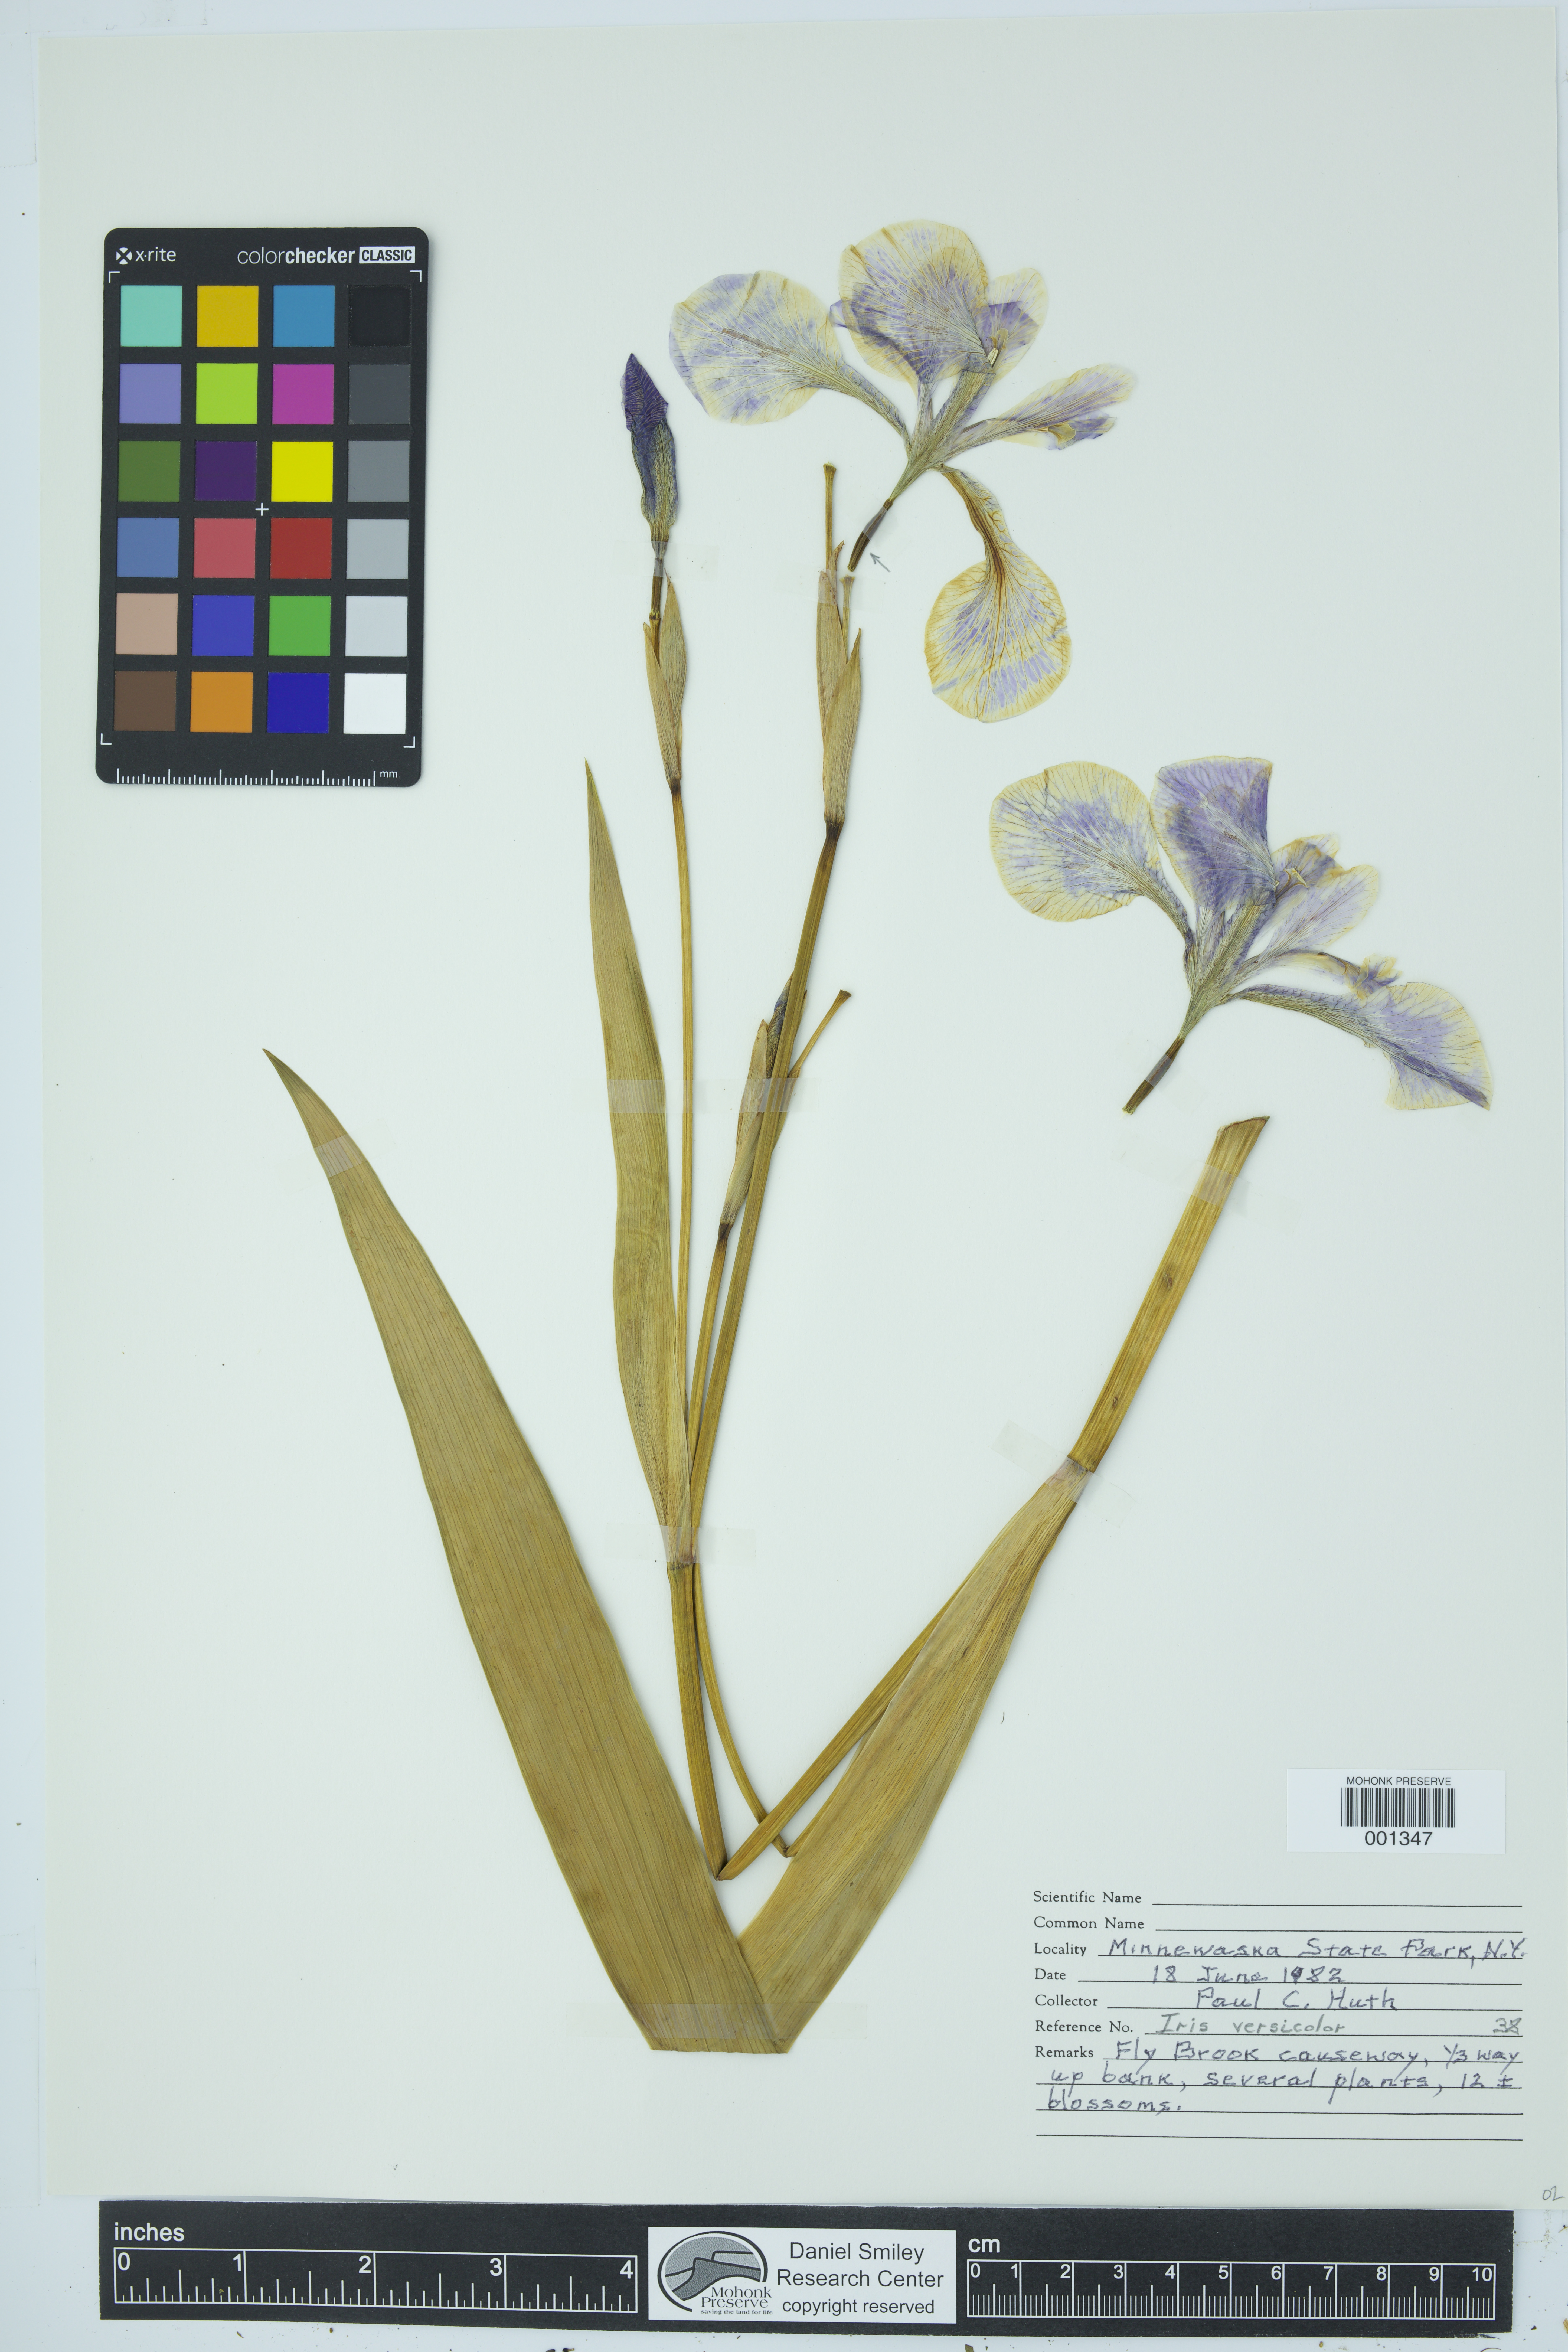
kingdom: Plantae
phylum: Tracheophyta
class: Liliopsida
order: Asparagales
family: Iridaceae
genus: Iris
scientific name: Iris versicolor
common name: Purple iris
